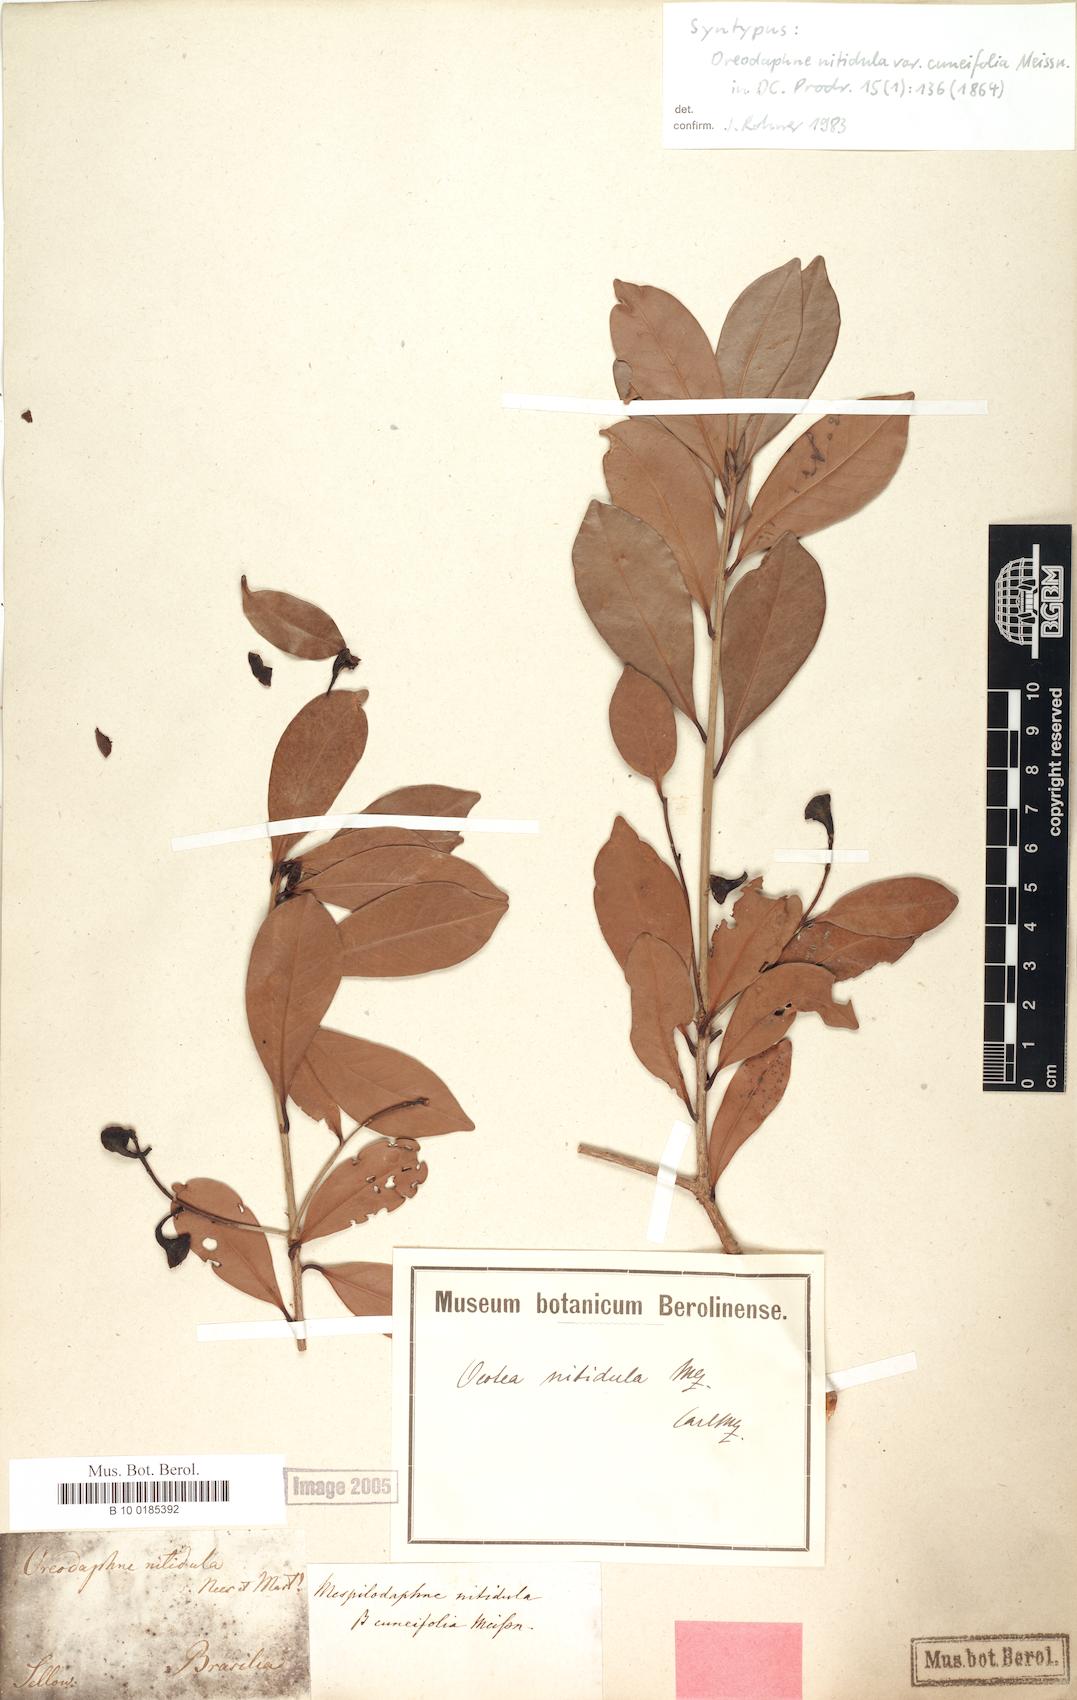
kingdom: Plantae
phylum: Tracheophyta
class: Magnoliopsida
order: Laurales
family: Lauraceae
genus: Nectandra
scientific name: Nectandra nitidula
